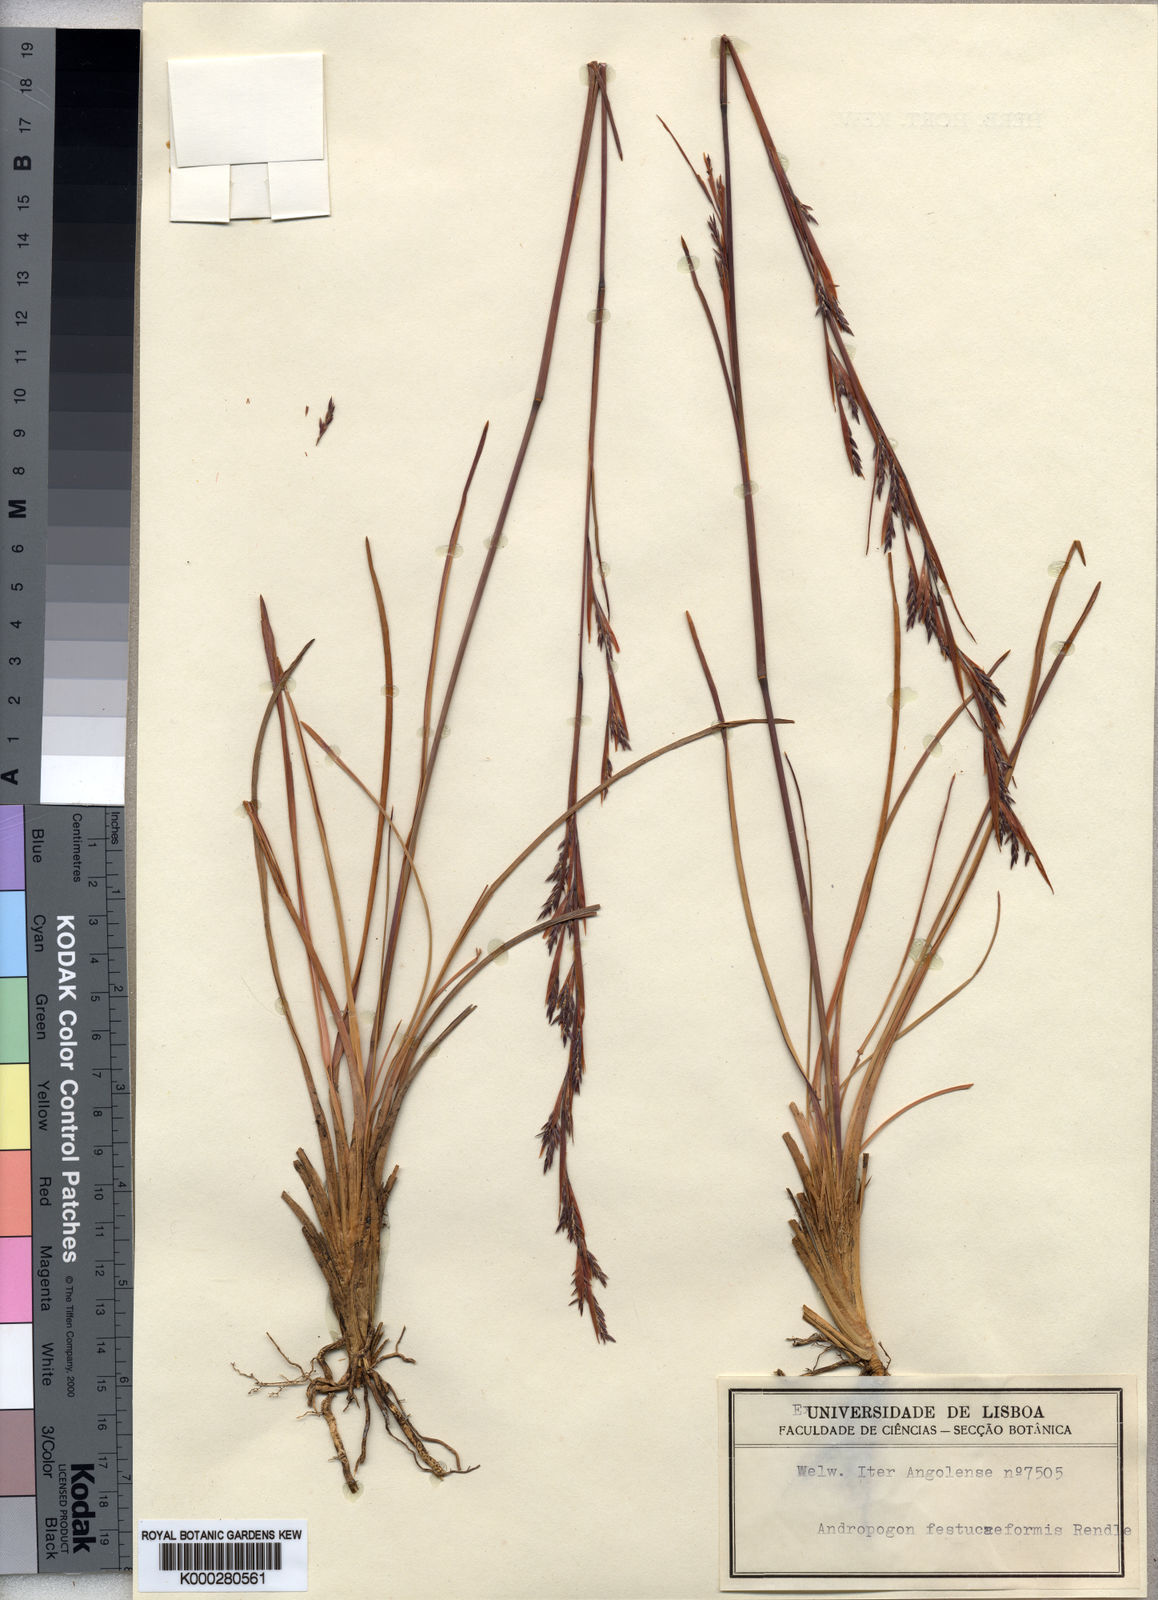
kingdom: Plantae
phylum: Tracheophyta
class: Liliopsida
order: Poales
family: Poaceae
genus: Andropogon
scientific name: Andropogon festuciformis
